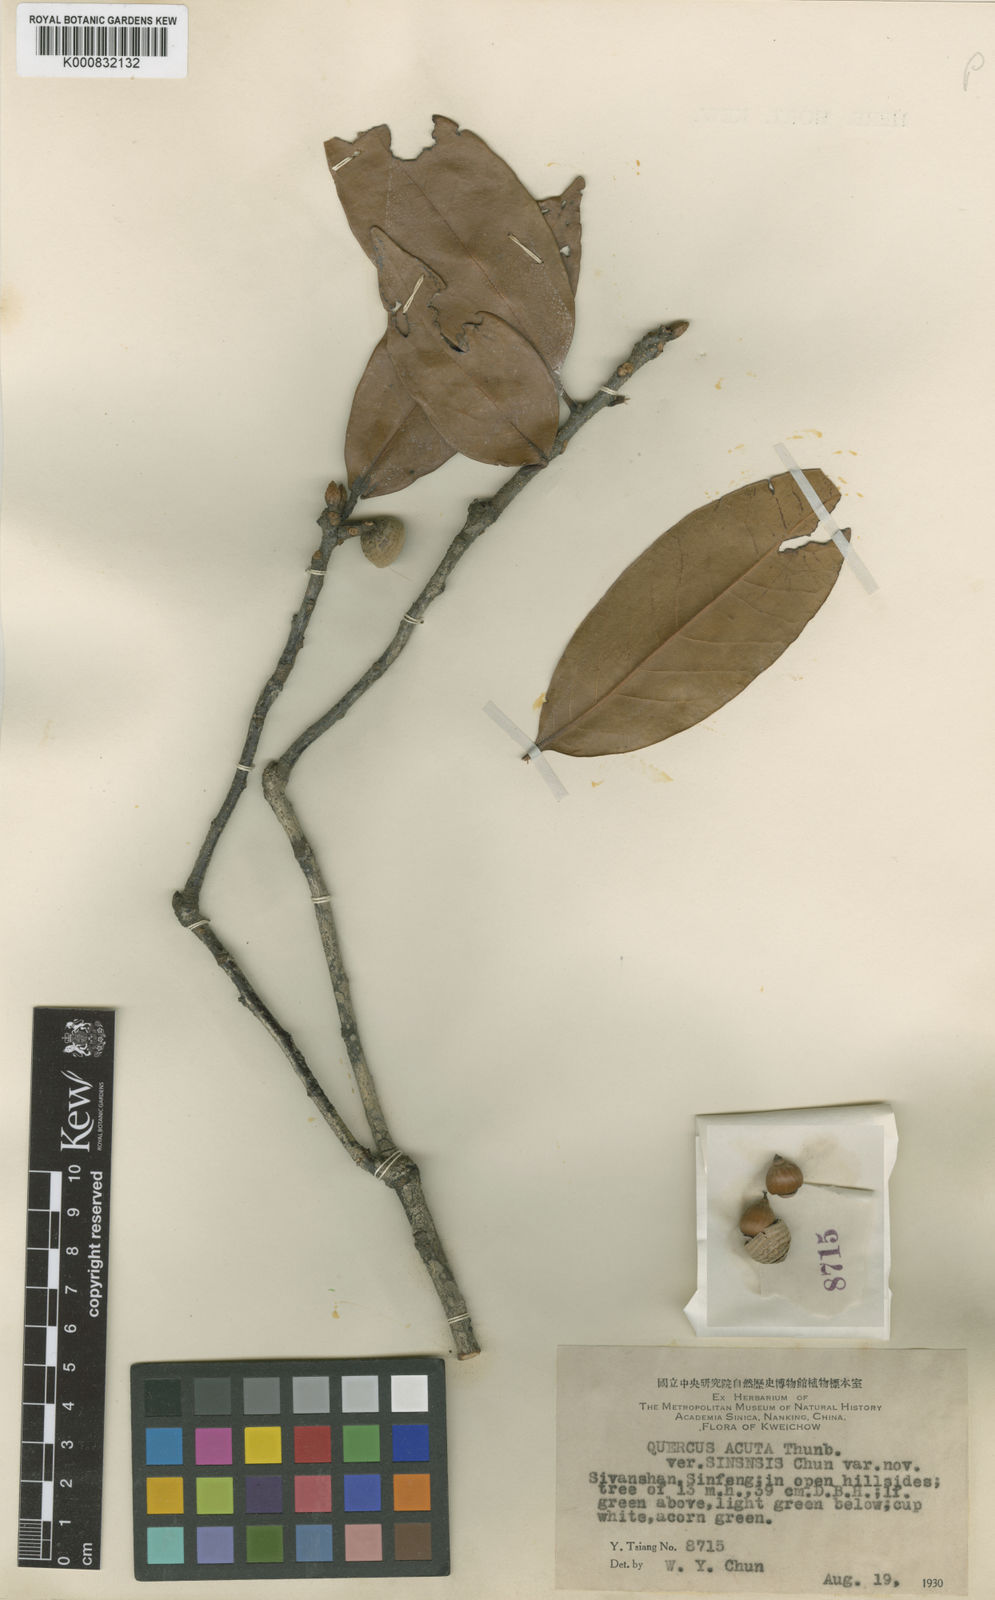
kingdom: Plantae
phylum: Tracheophyta
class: Magnoliopsida
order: Fagales
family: Fagaceae
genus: Quercus
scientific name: Quercus acuta
